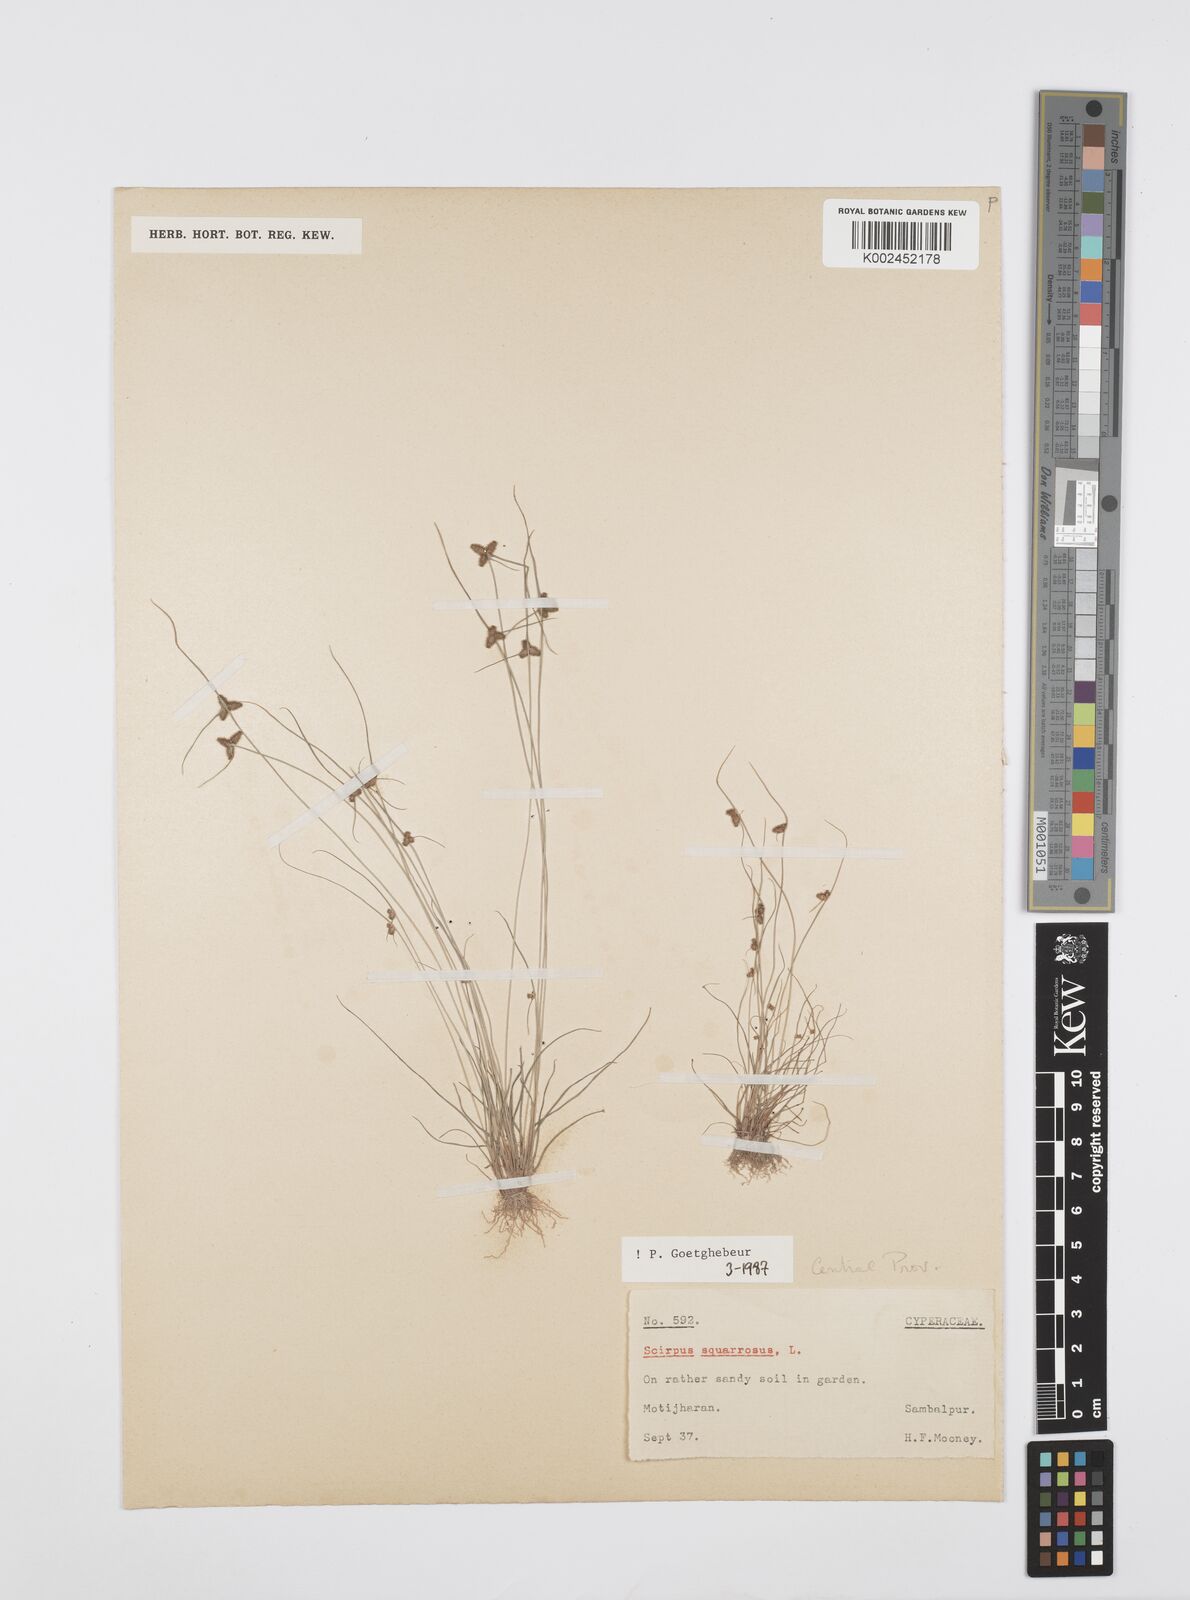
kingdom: Plantae
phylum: Tracheophyta
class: Liliopsida
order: Poales
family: Cyperaceae
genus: Cyperus
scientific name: Cyperus squarrosus
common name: Awned cyperus
